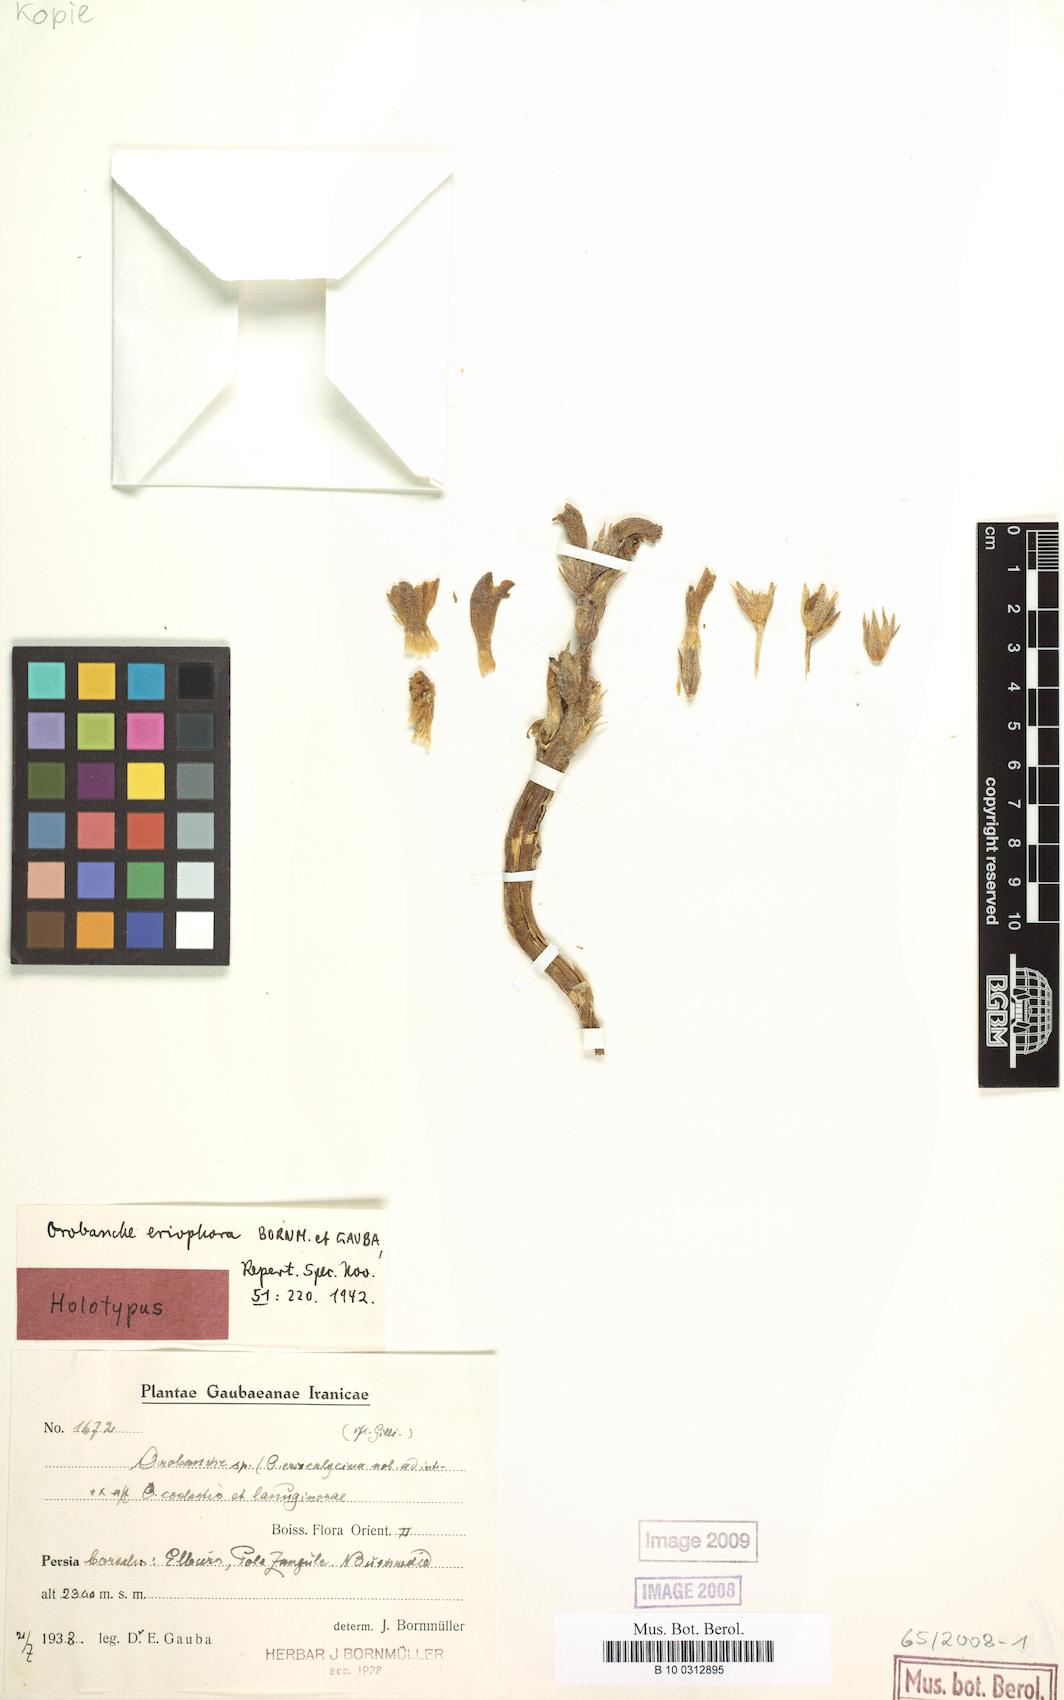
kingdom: Plantae
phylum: Tracheophyta
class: Magnoliopsida
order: Lamiales
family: Orobanchaceae
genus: Phelipanche
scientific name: Phelipanche bungeana
